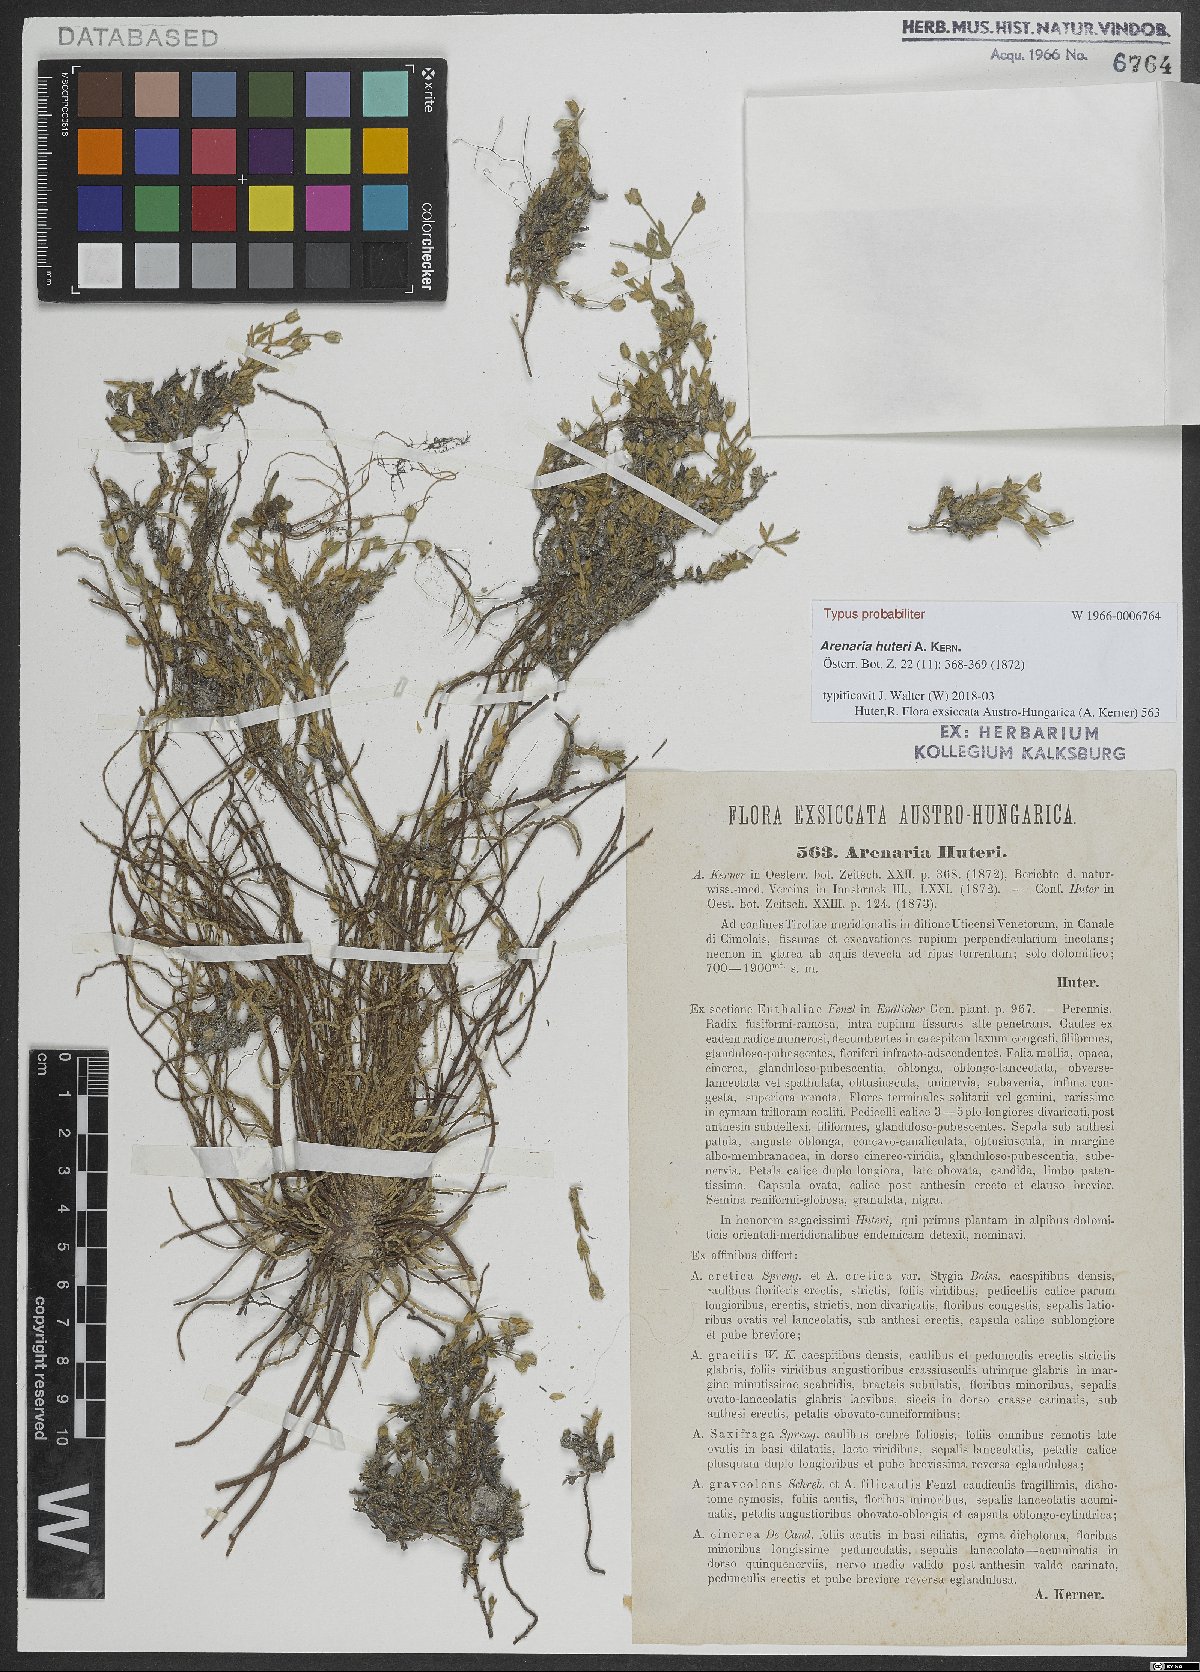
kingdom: Plantae
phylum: Tracheophyta
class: Magnoliopsida
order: Caryophyllales
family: Caryophyllaceae
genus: Arenaria
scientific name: Arenaria huteri
